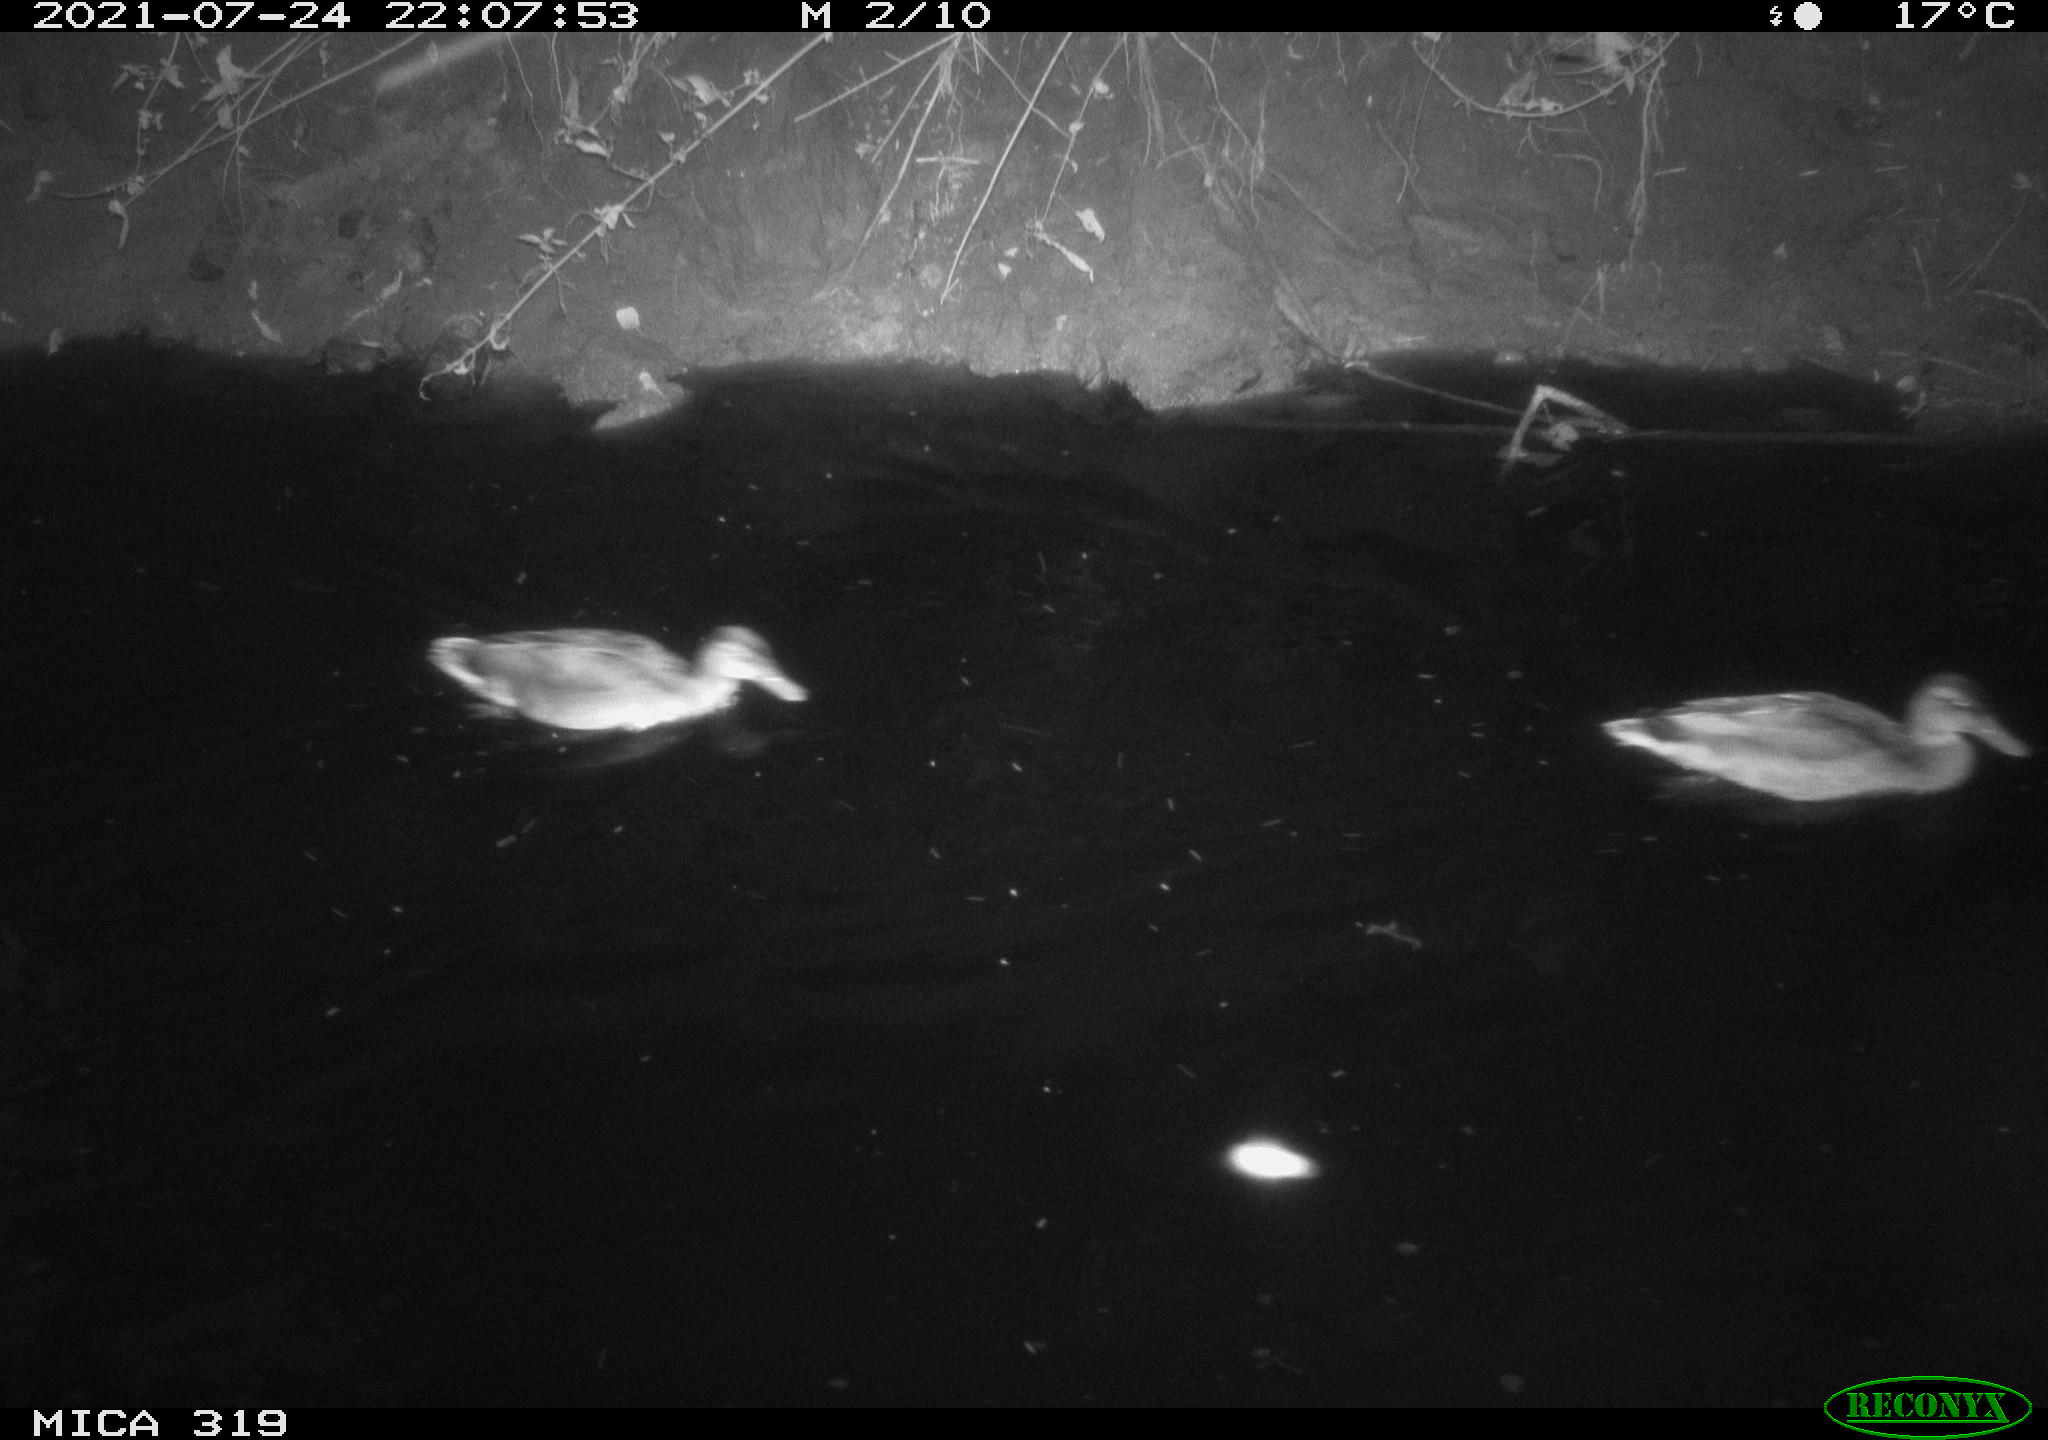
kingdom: Animalia
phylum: Chordata
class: Aves
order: Anseriformes
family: Anatidae
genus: Anas
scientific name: Anas platyrhynchos
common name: Mallard
